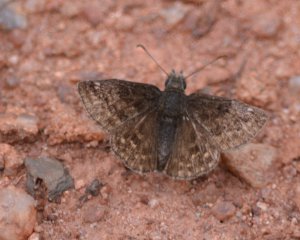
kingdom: Animalia
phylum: Arthropoda
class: Insecta
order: Lepidoptera
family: Hesperiidae
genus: Erynnis
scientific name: Erynnis icelus
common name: Dreamy Duskywing
